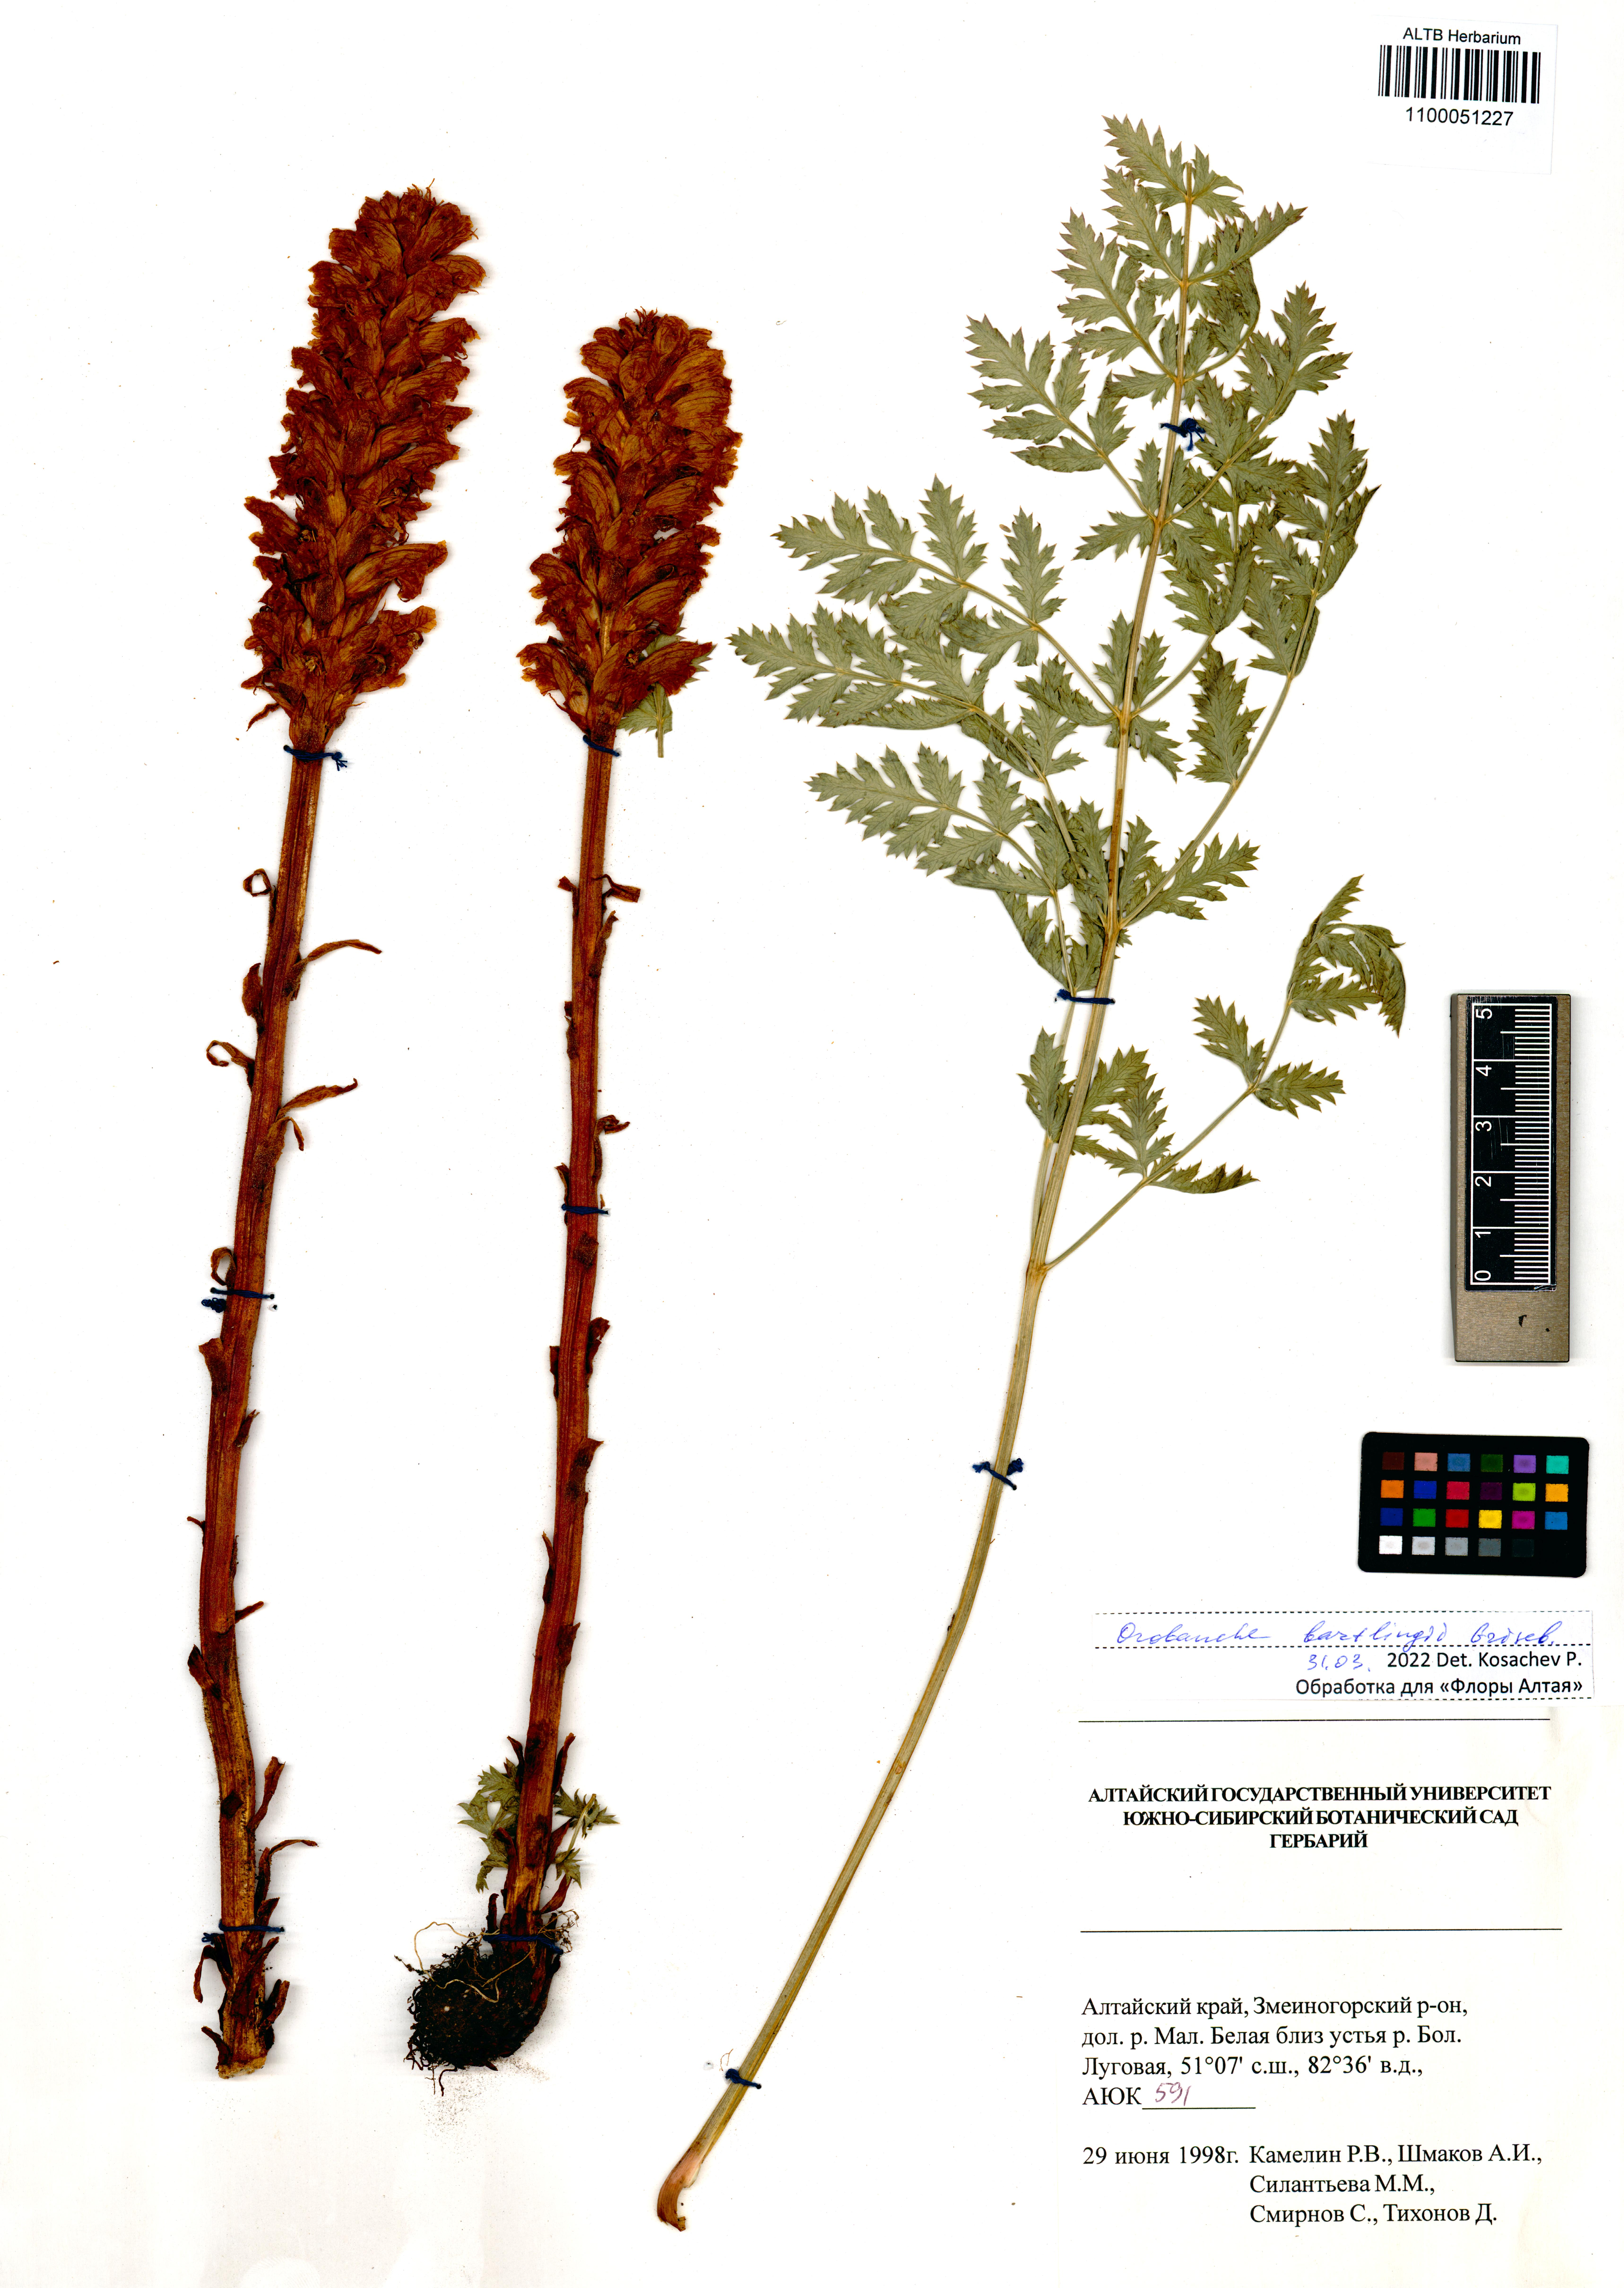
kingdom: Plantae
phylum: Tracheophyta
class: Magnoliopsida
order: Lamiales
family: Orobanchaceae
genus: Orobanche
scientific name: Orobanche alsatica
